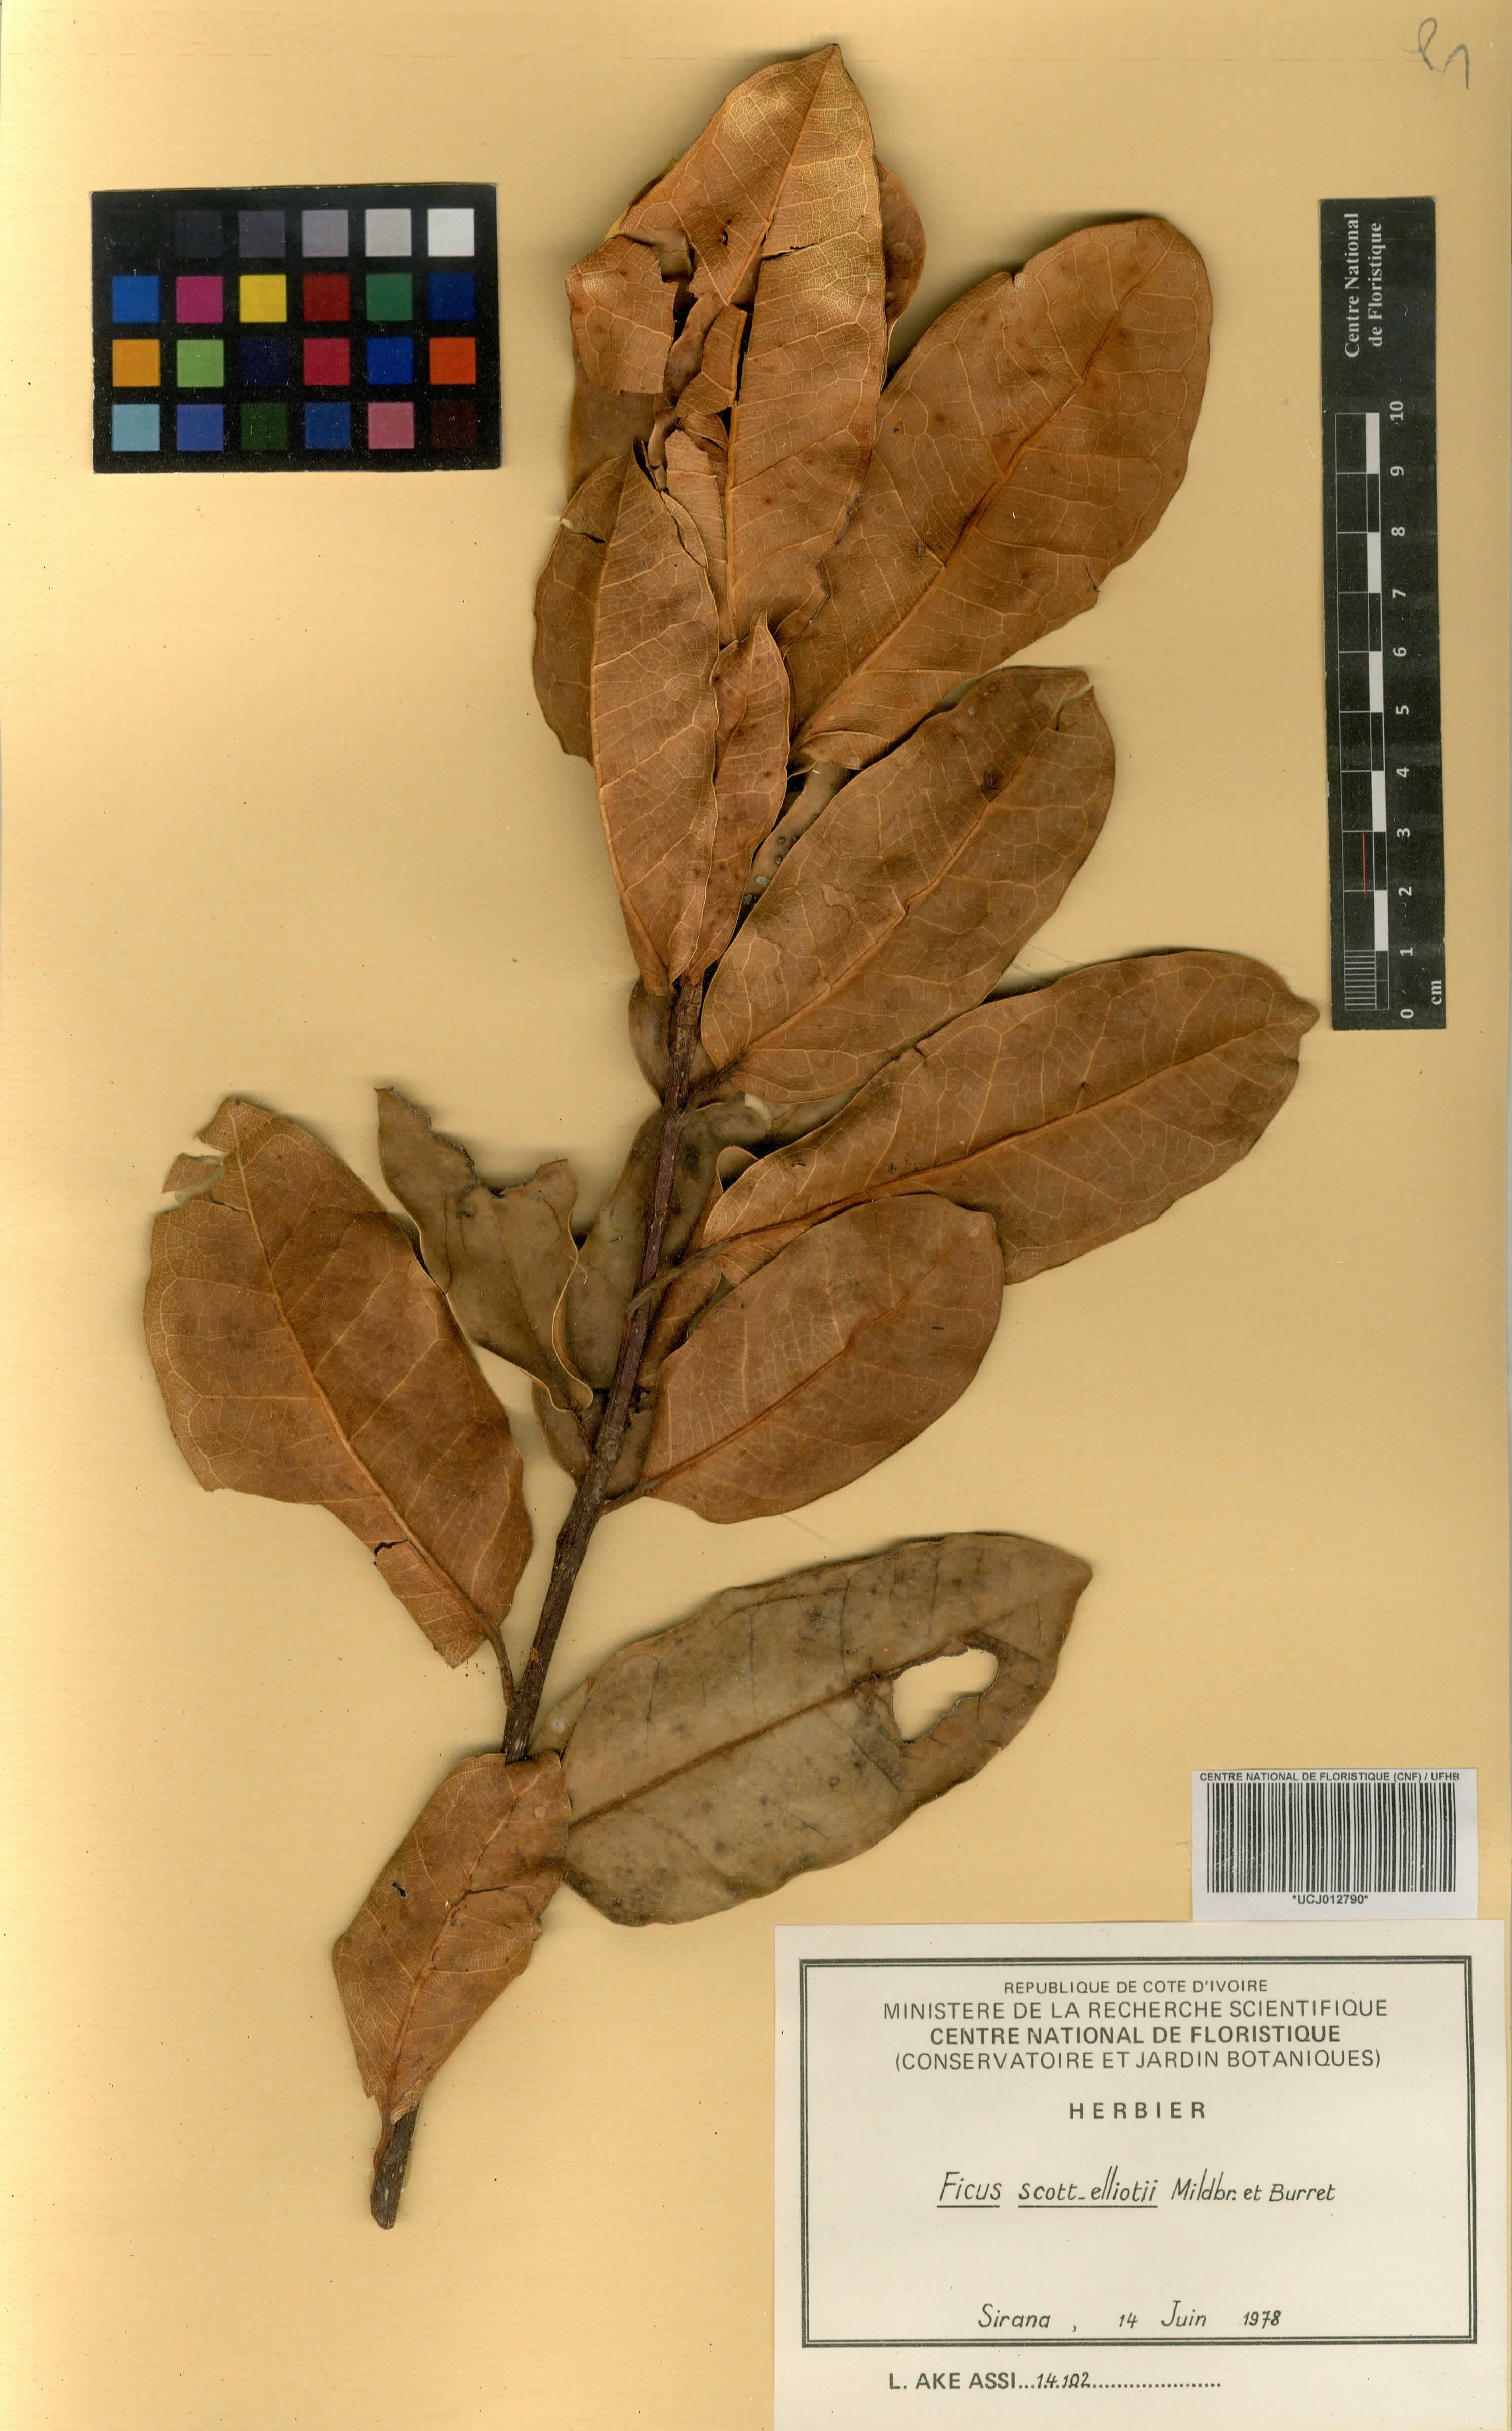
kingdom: Plantae
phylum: Tracheophyta
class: Magnoliopsida
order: Rosales
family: Moraceae
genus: Ficus
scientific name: Ficus scott-elliottii
